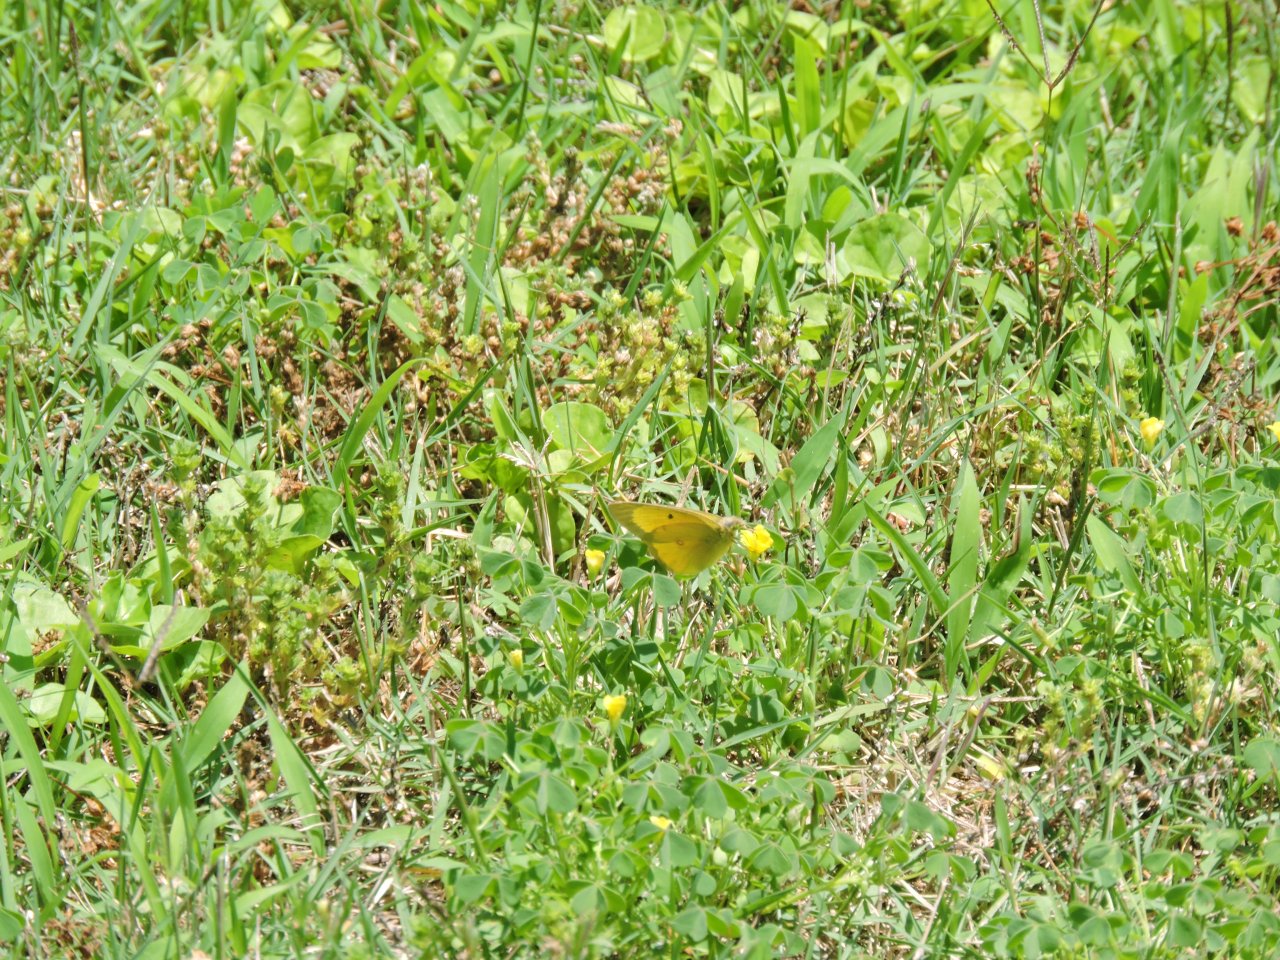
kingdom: Animalia
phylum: Arthropoda
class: Insecta
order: Lepidoptera
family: Pieridae
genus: Abaeis
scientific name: Abaeis nicippe
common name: Sleepy Orange
